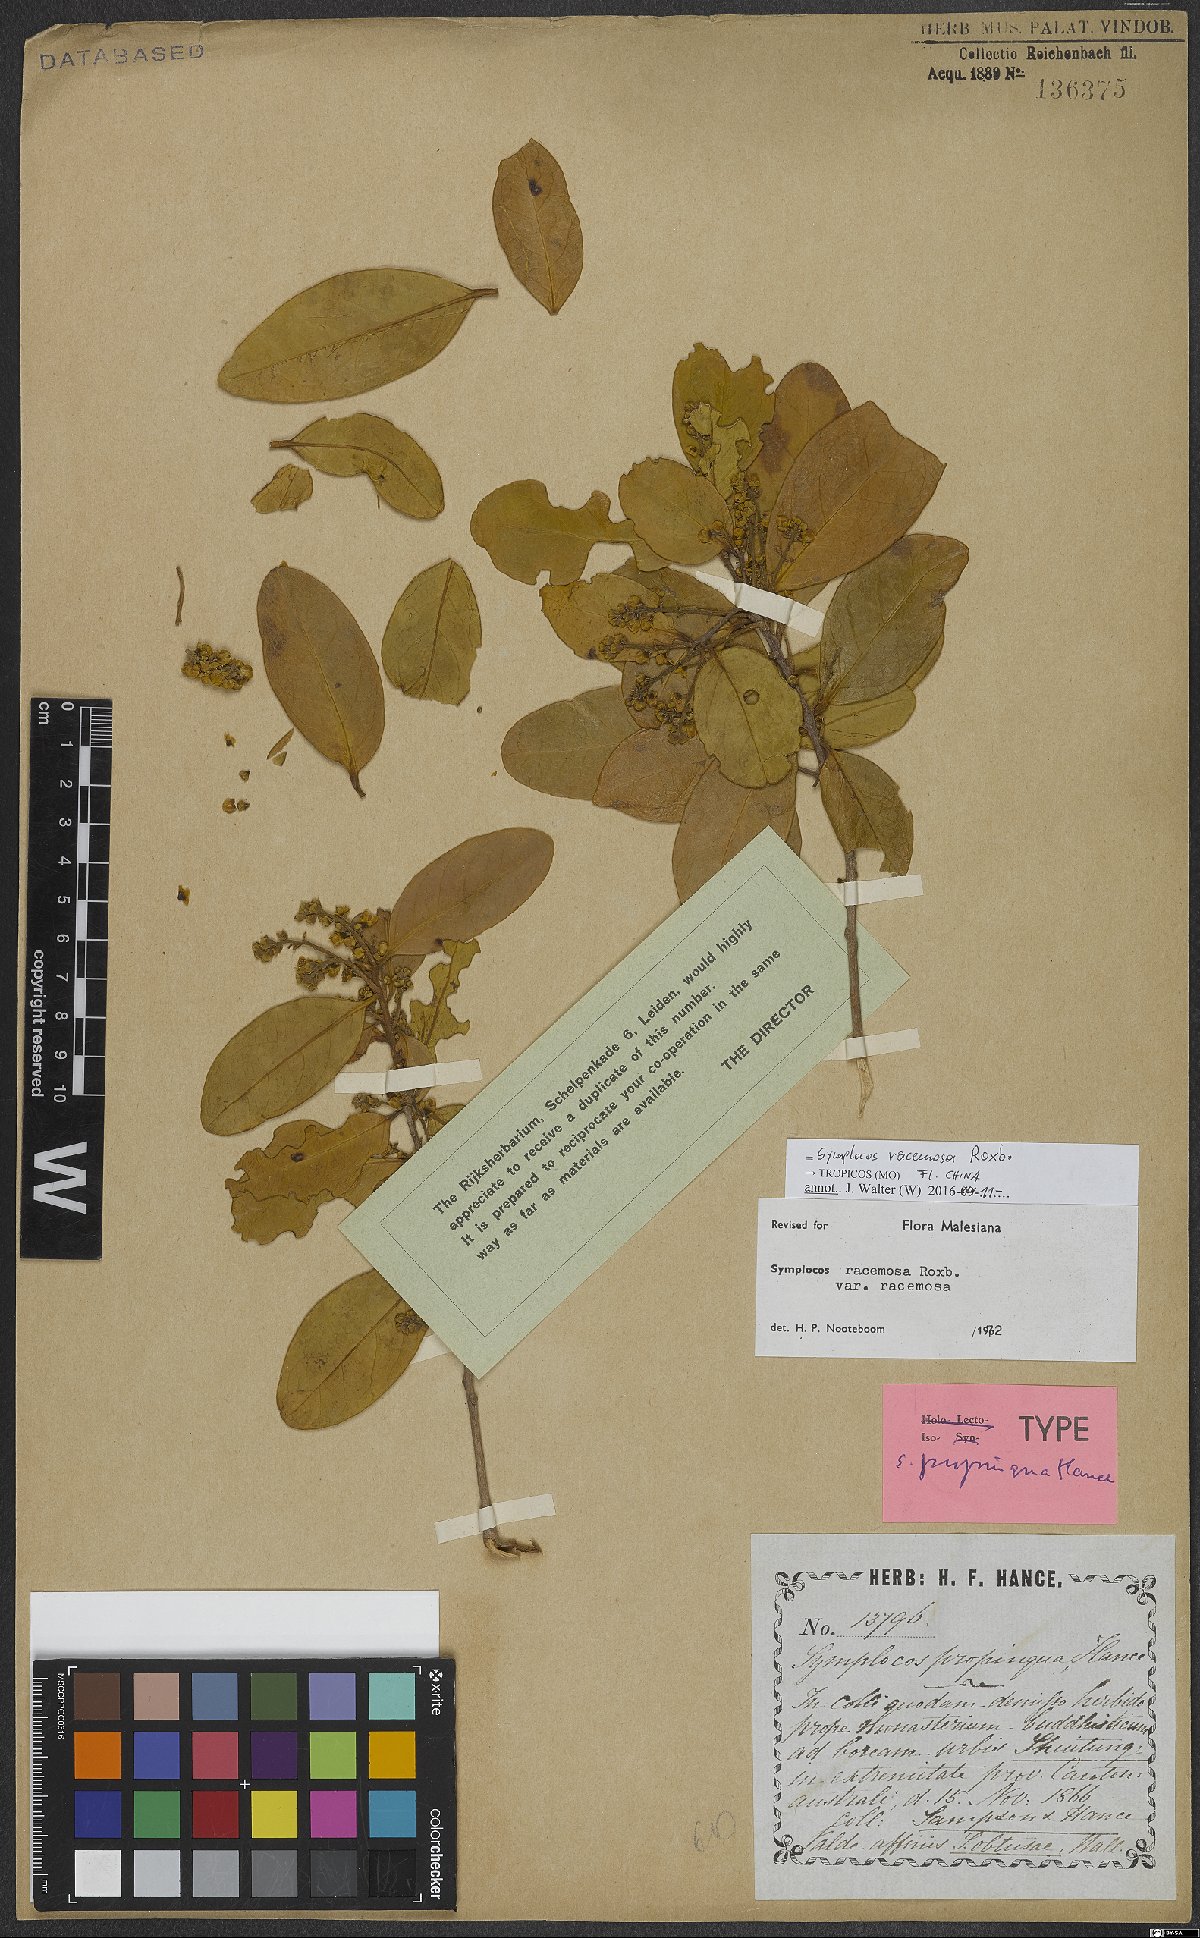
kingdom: Plantae
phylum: Tracheophyta
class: Magnoliopsida
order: Ericales
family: Symplocaceae
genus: Symplocos
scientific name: Symplocos racemosa
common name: Lodhtree
